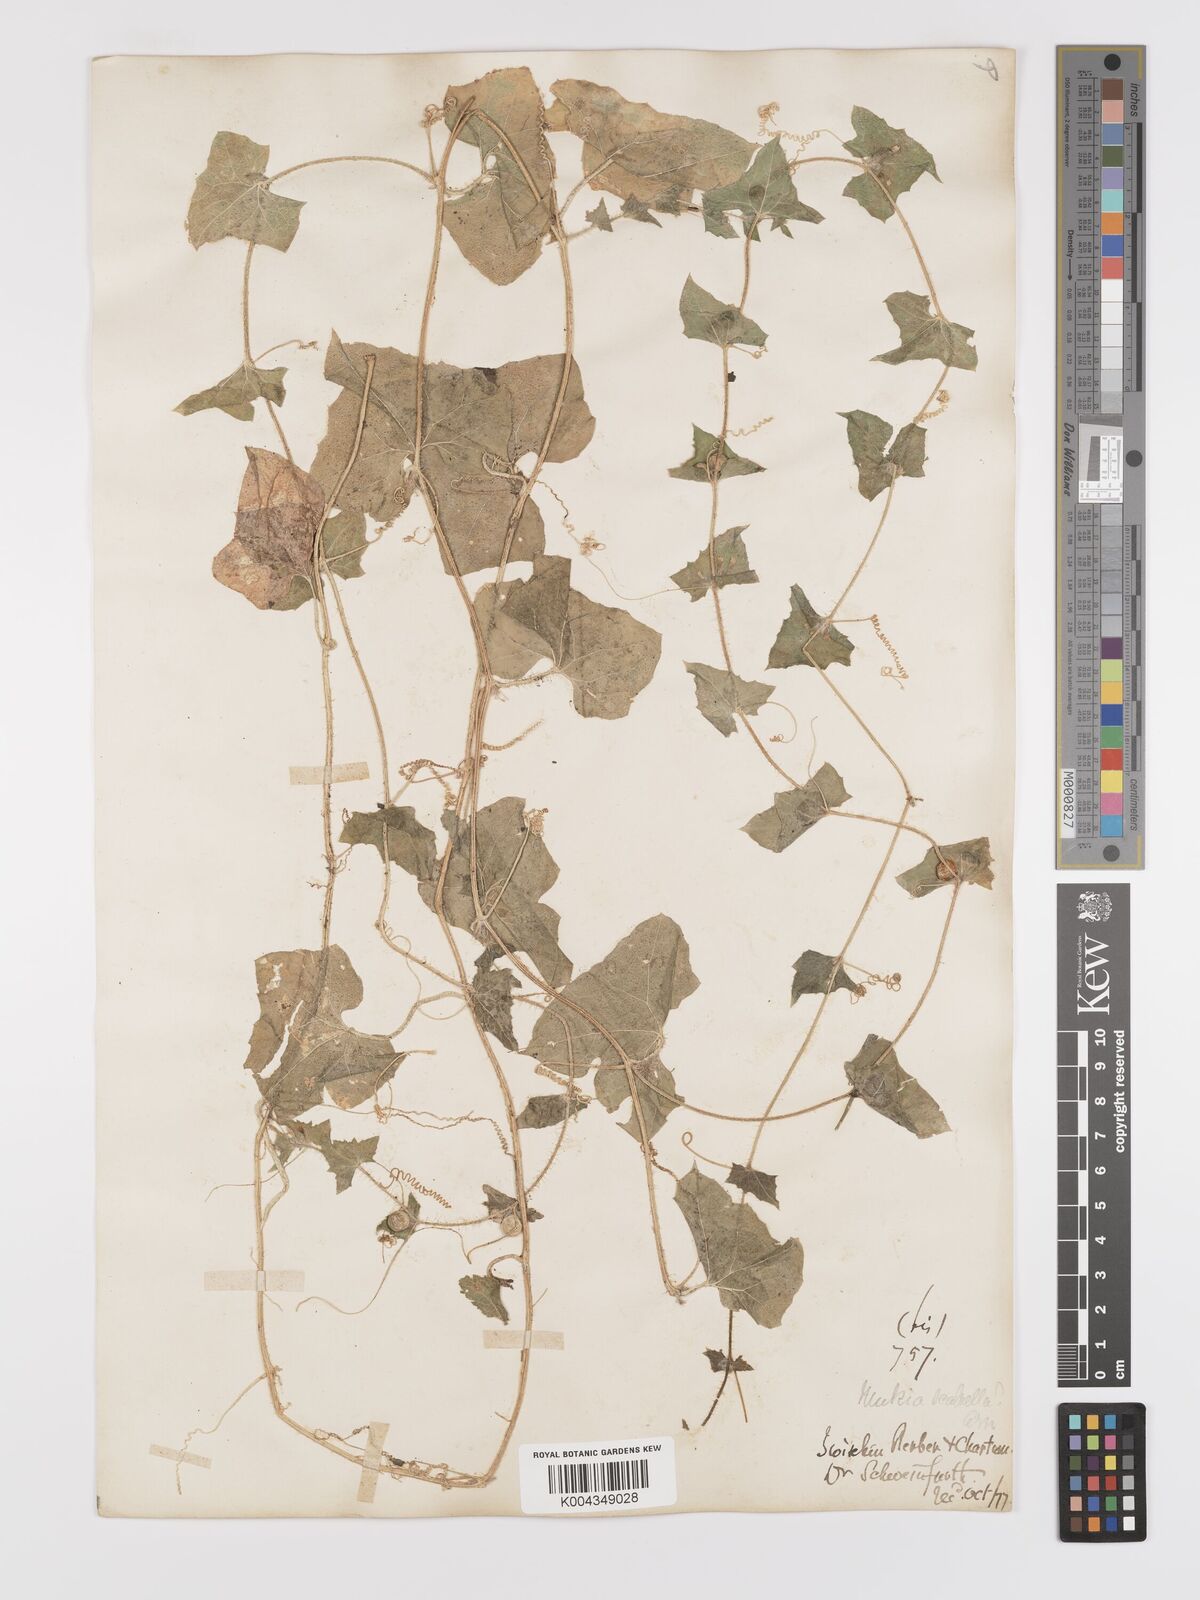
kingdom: Plantae
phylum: Tracheophyta
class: Magnoliopsida
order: Cucurbitales
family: Cucurbitaceae
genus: Cucumis
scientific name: Cucumis maderaspatanus
